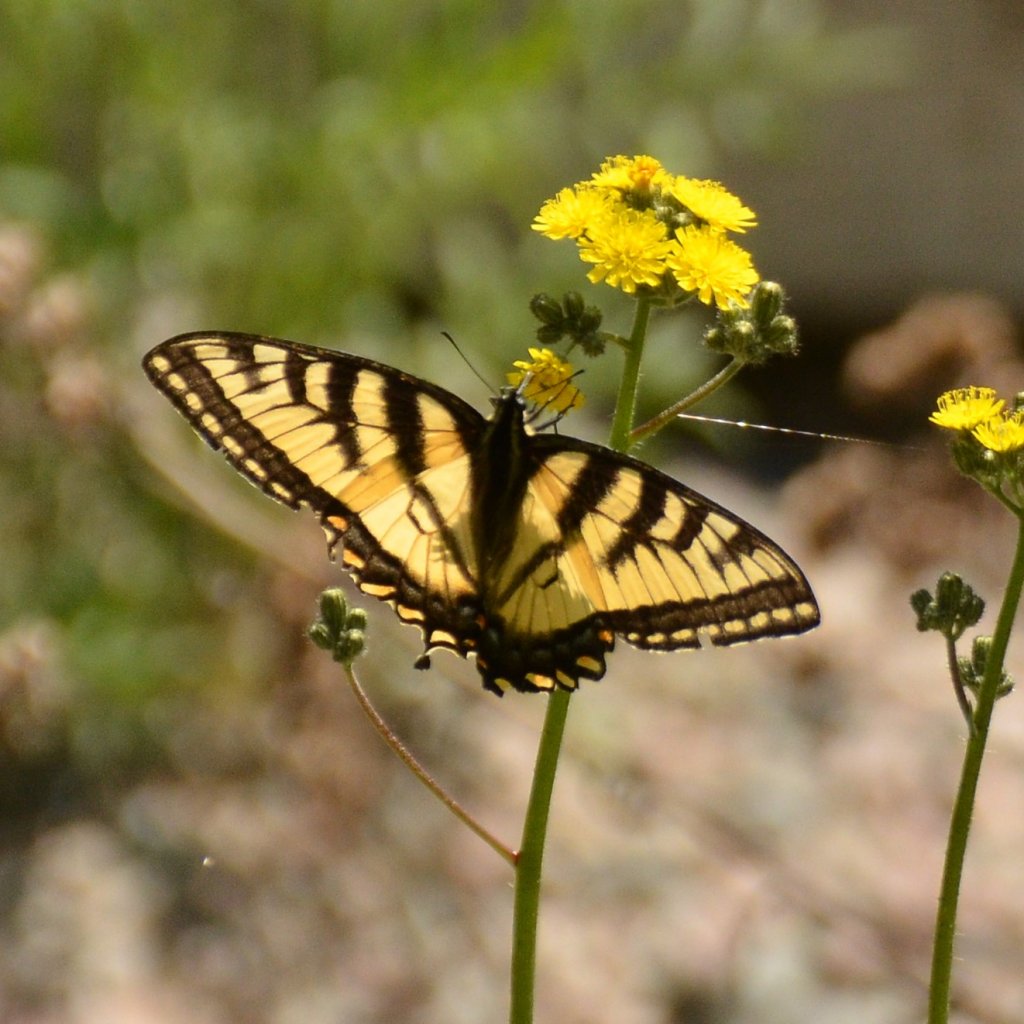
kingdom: Animalia
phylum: Arthropoda
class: Insecta
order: Lepidoptera
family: Papilionidae
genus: Pterourus
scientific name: Pterourus canadensis
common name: Canadian Tiger Swallowtail
